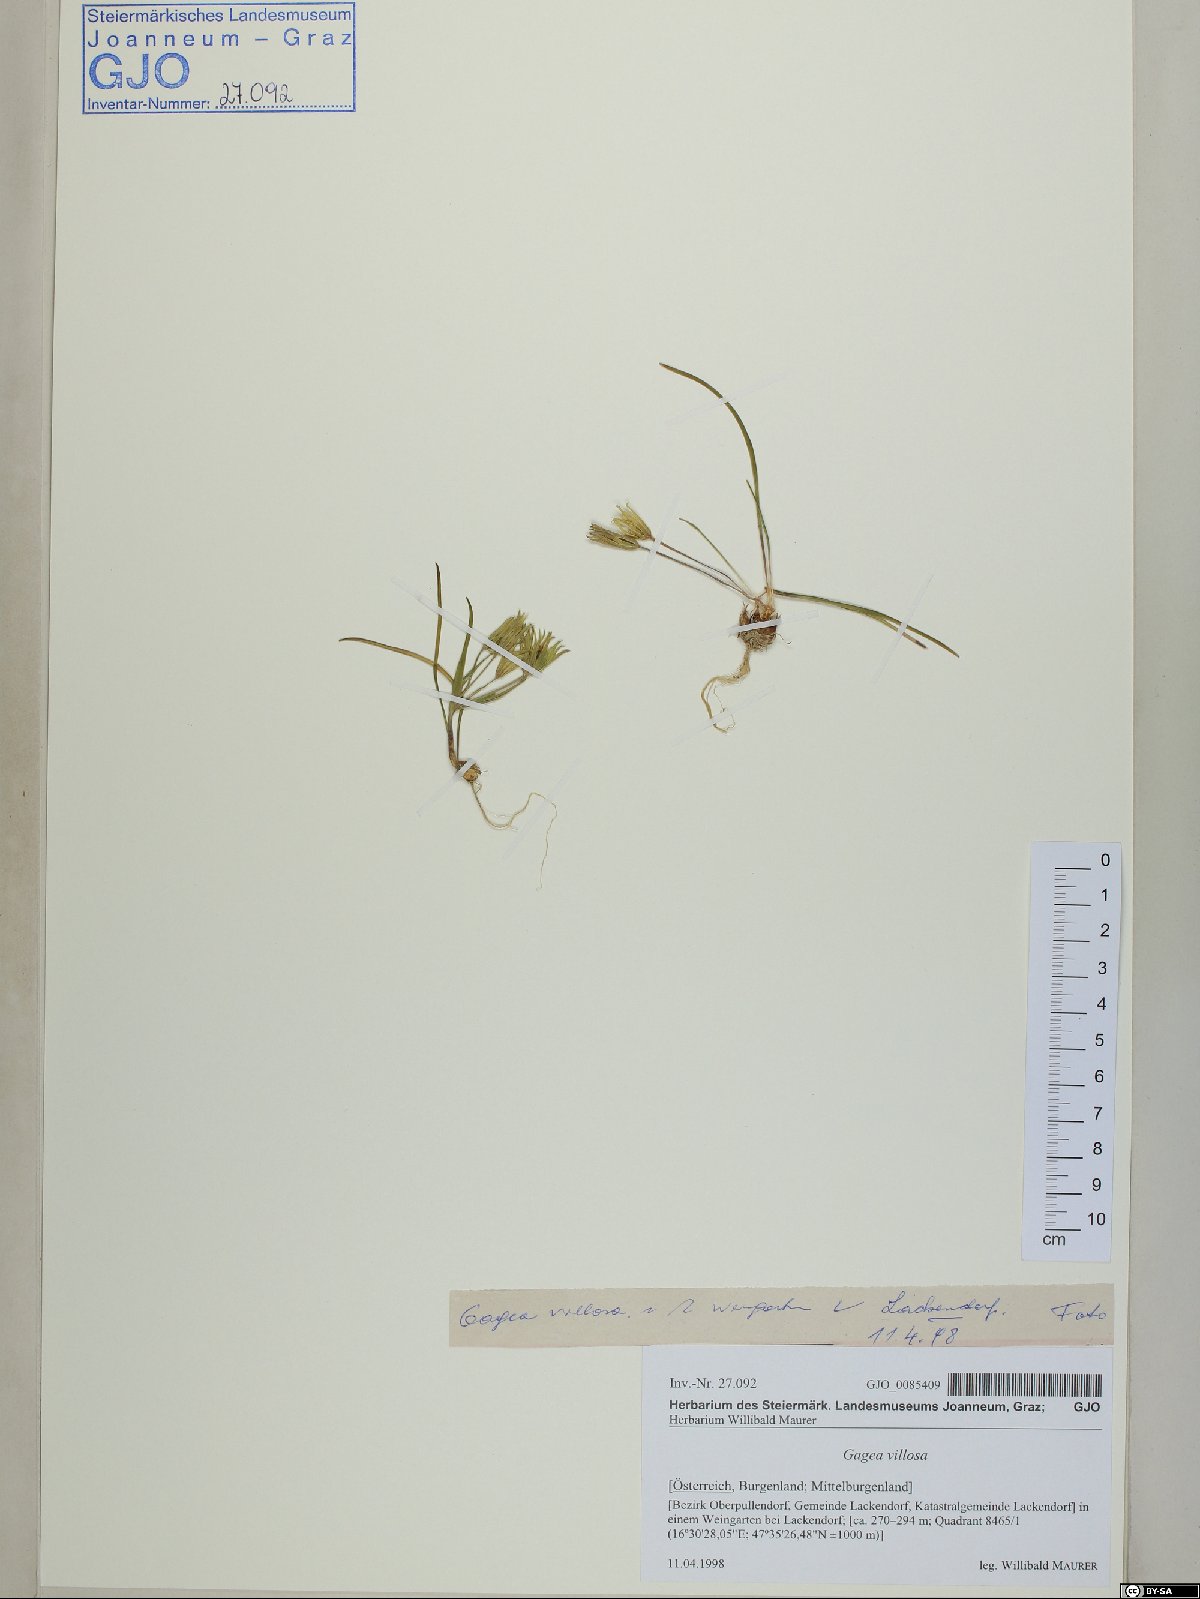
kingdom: Plantae
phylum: Tracheophyta
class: Liliopsida
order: Liliales
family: Liliaceae
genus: Gagea
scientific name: Gagea villosa
